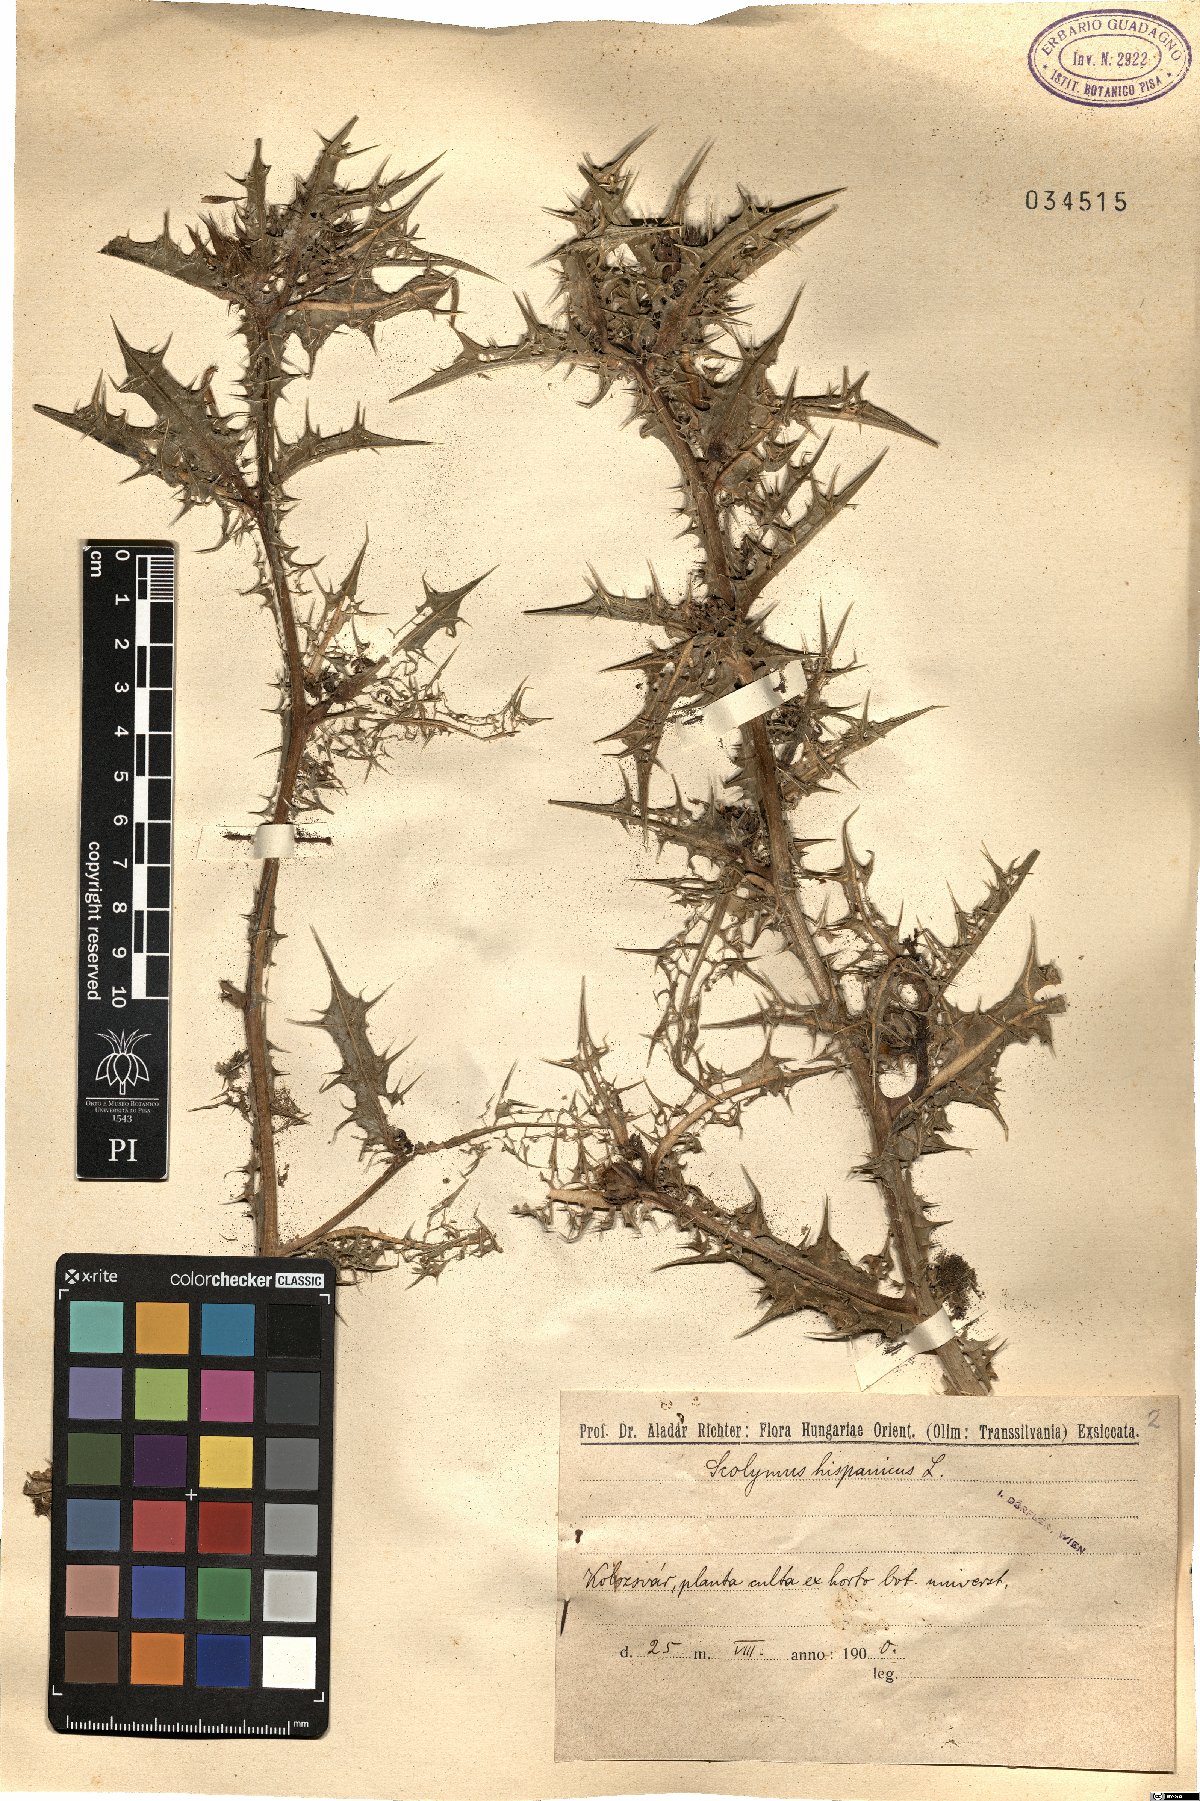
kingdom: Plantae
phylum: Tracheophyta
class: Magnoliopsida
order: Asterales
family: Asteraceae
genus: Scolymus
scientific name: Scolymus hispanicus
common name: Golden thistle
